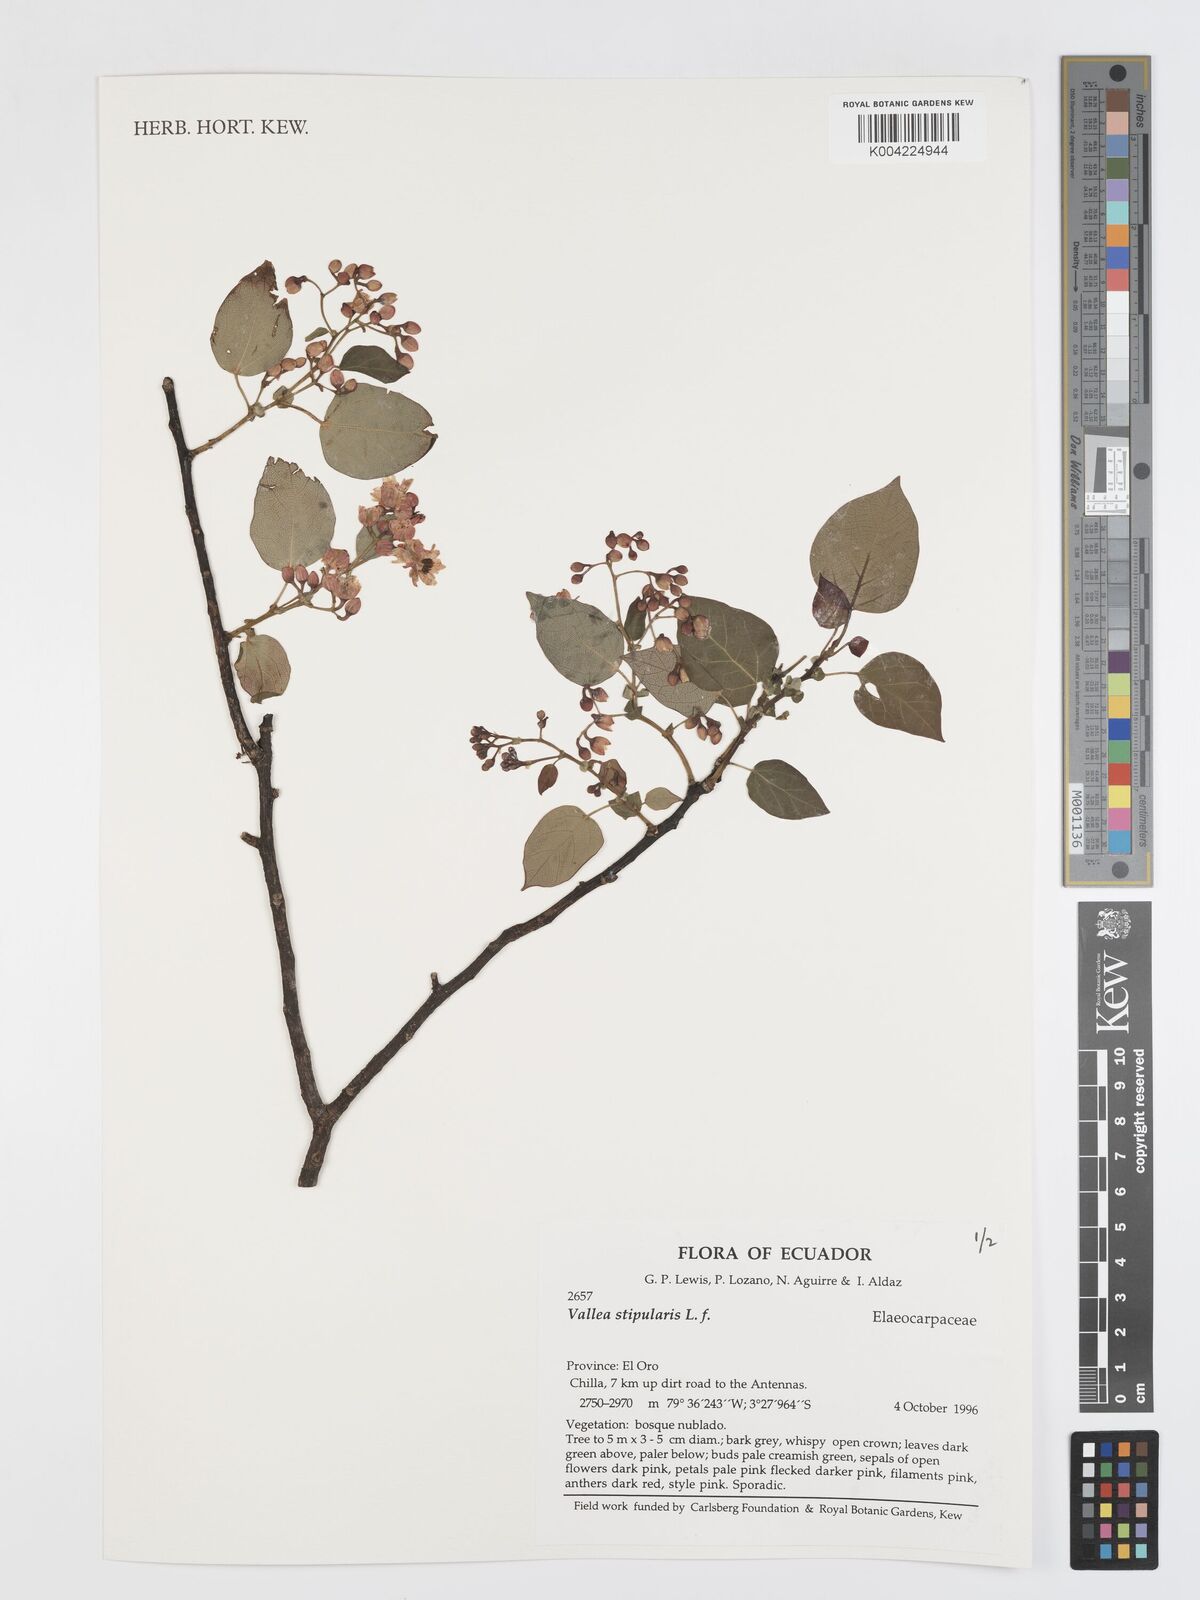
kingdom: Plantae
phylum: Tracheophyta
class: Magnoliopsida
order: Oxalidales
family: Elaeocarpaceae
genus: Vallea
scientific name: Vallea stipularis
